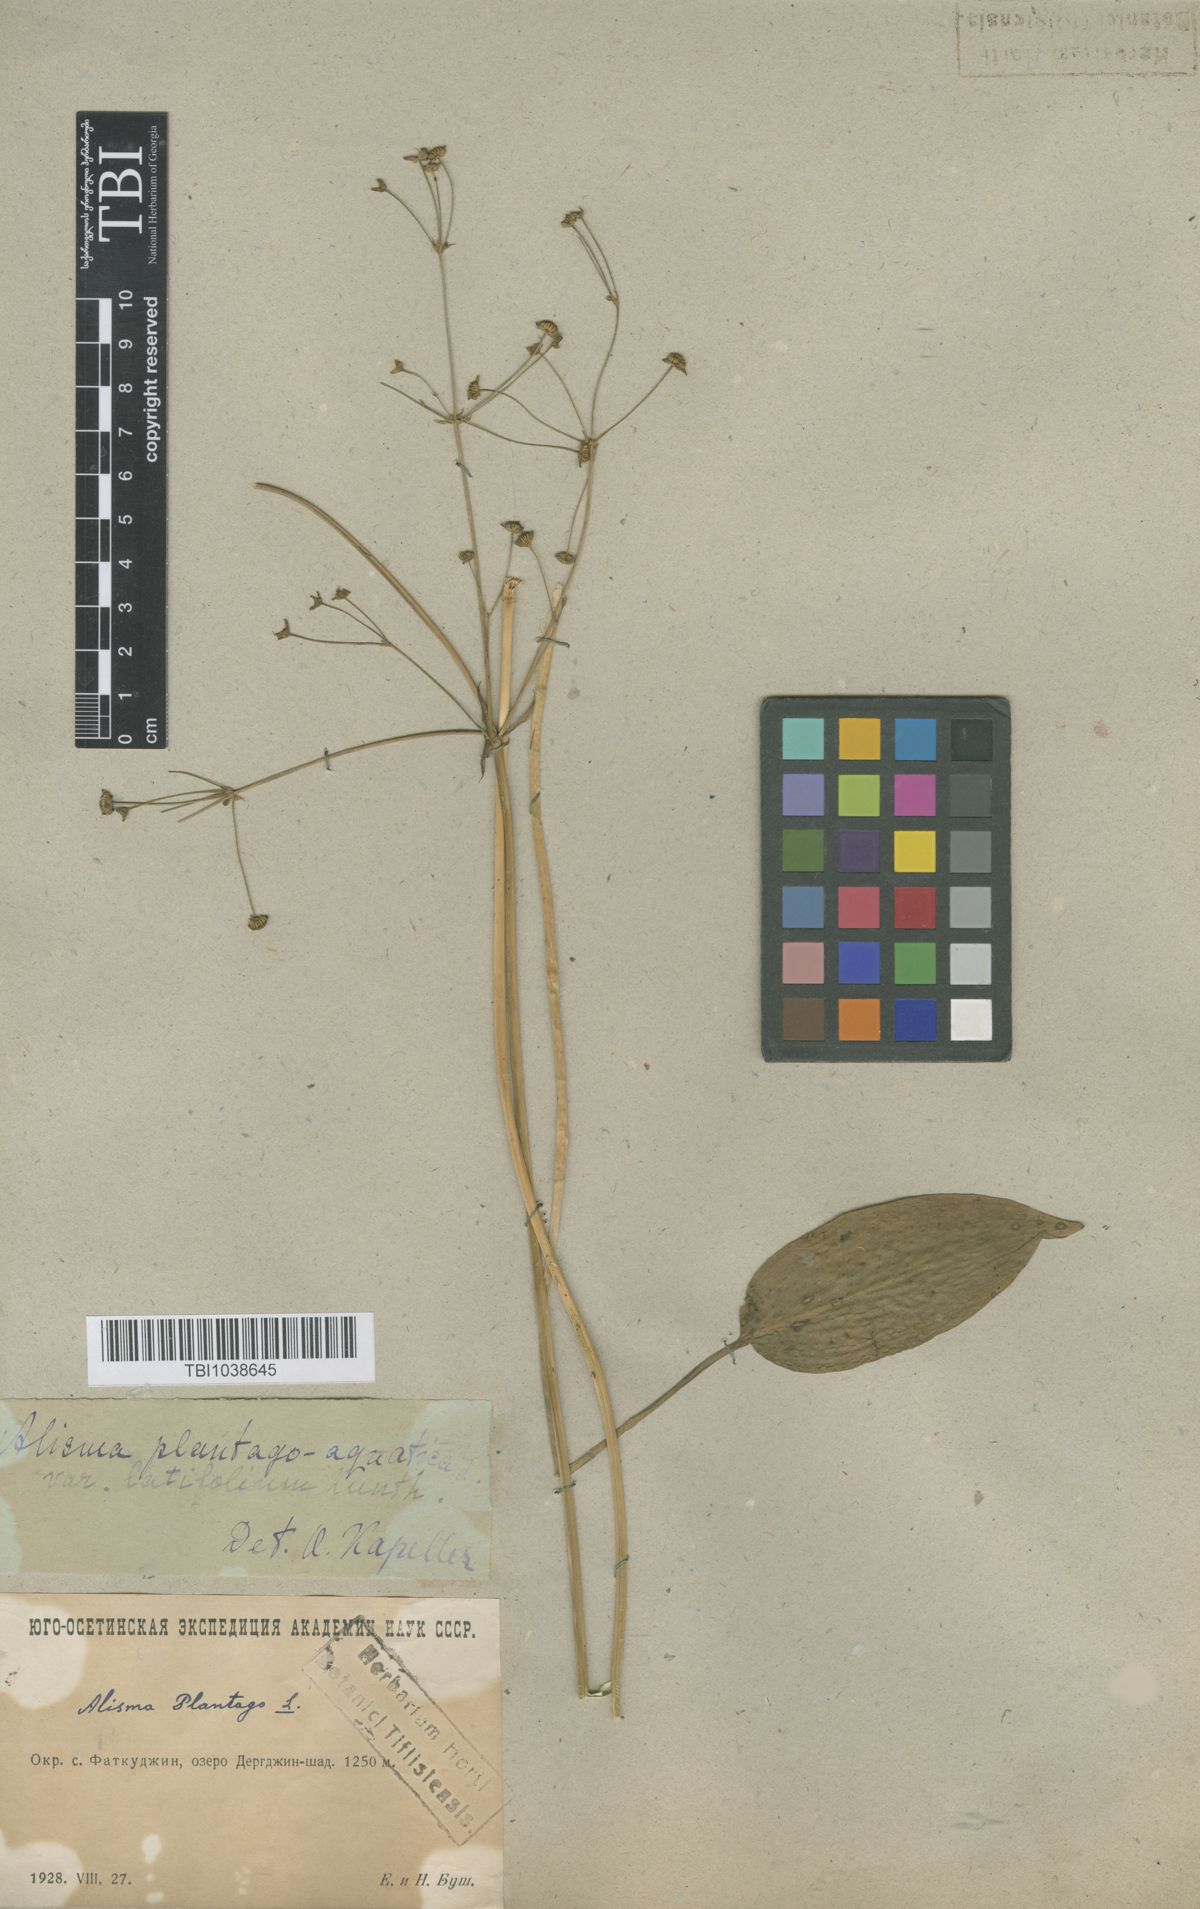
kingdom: Plantae
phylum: Tracheophyta
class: Liliopsida
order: Alismatales
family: Alismataceae
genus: Alisma
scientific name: Alisma plantago-aquatica
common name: Water-plantain
